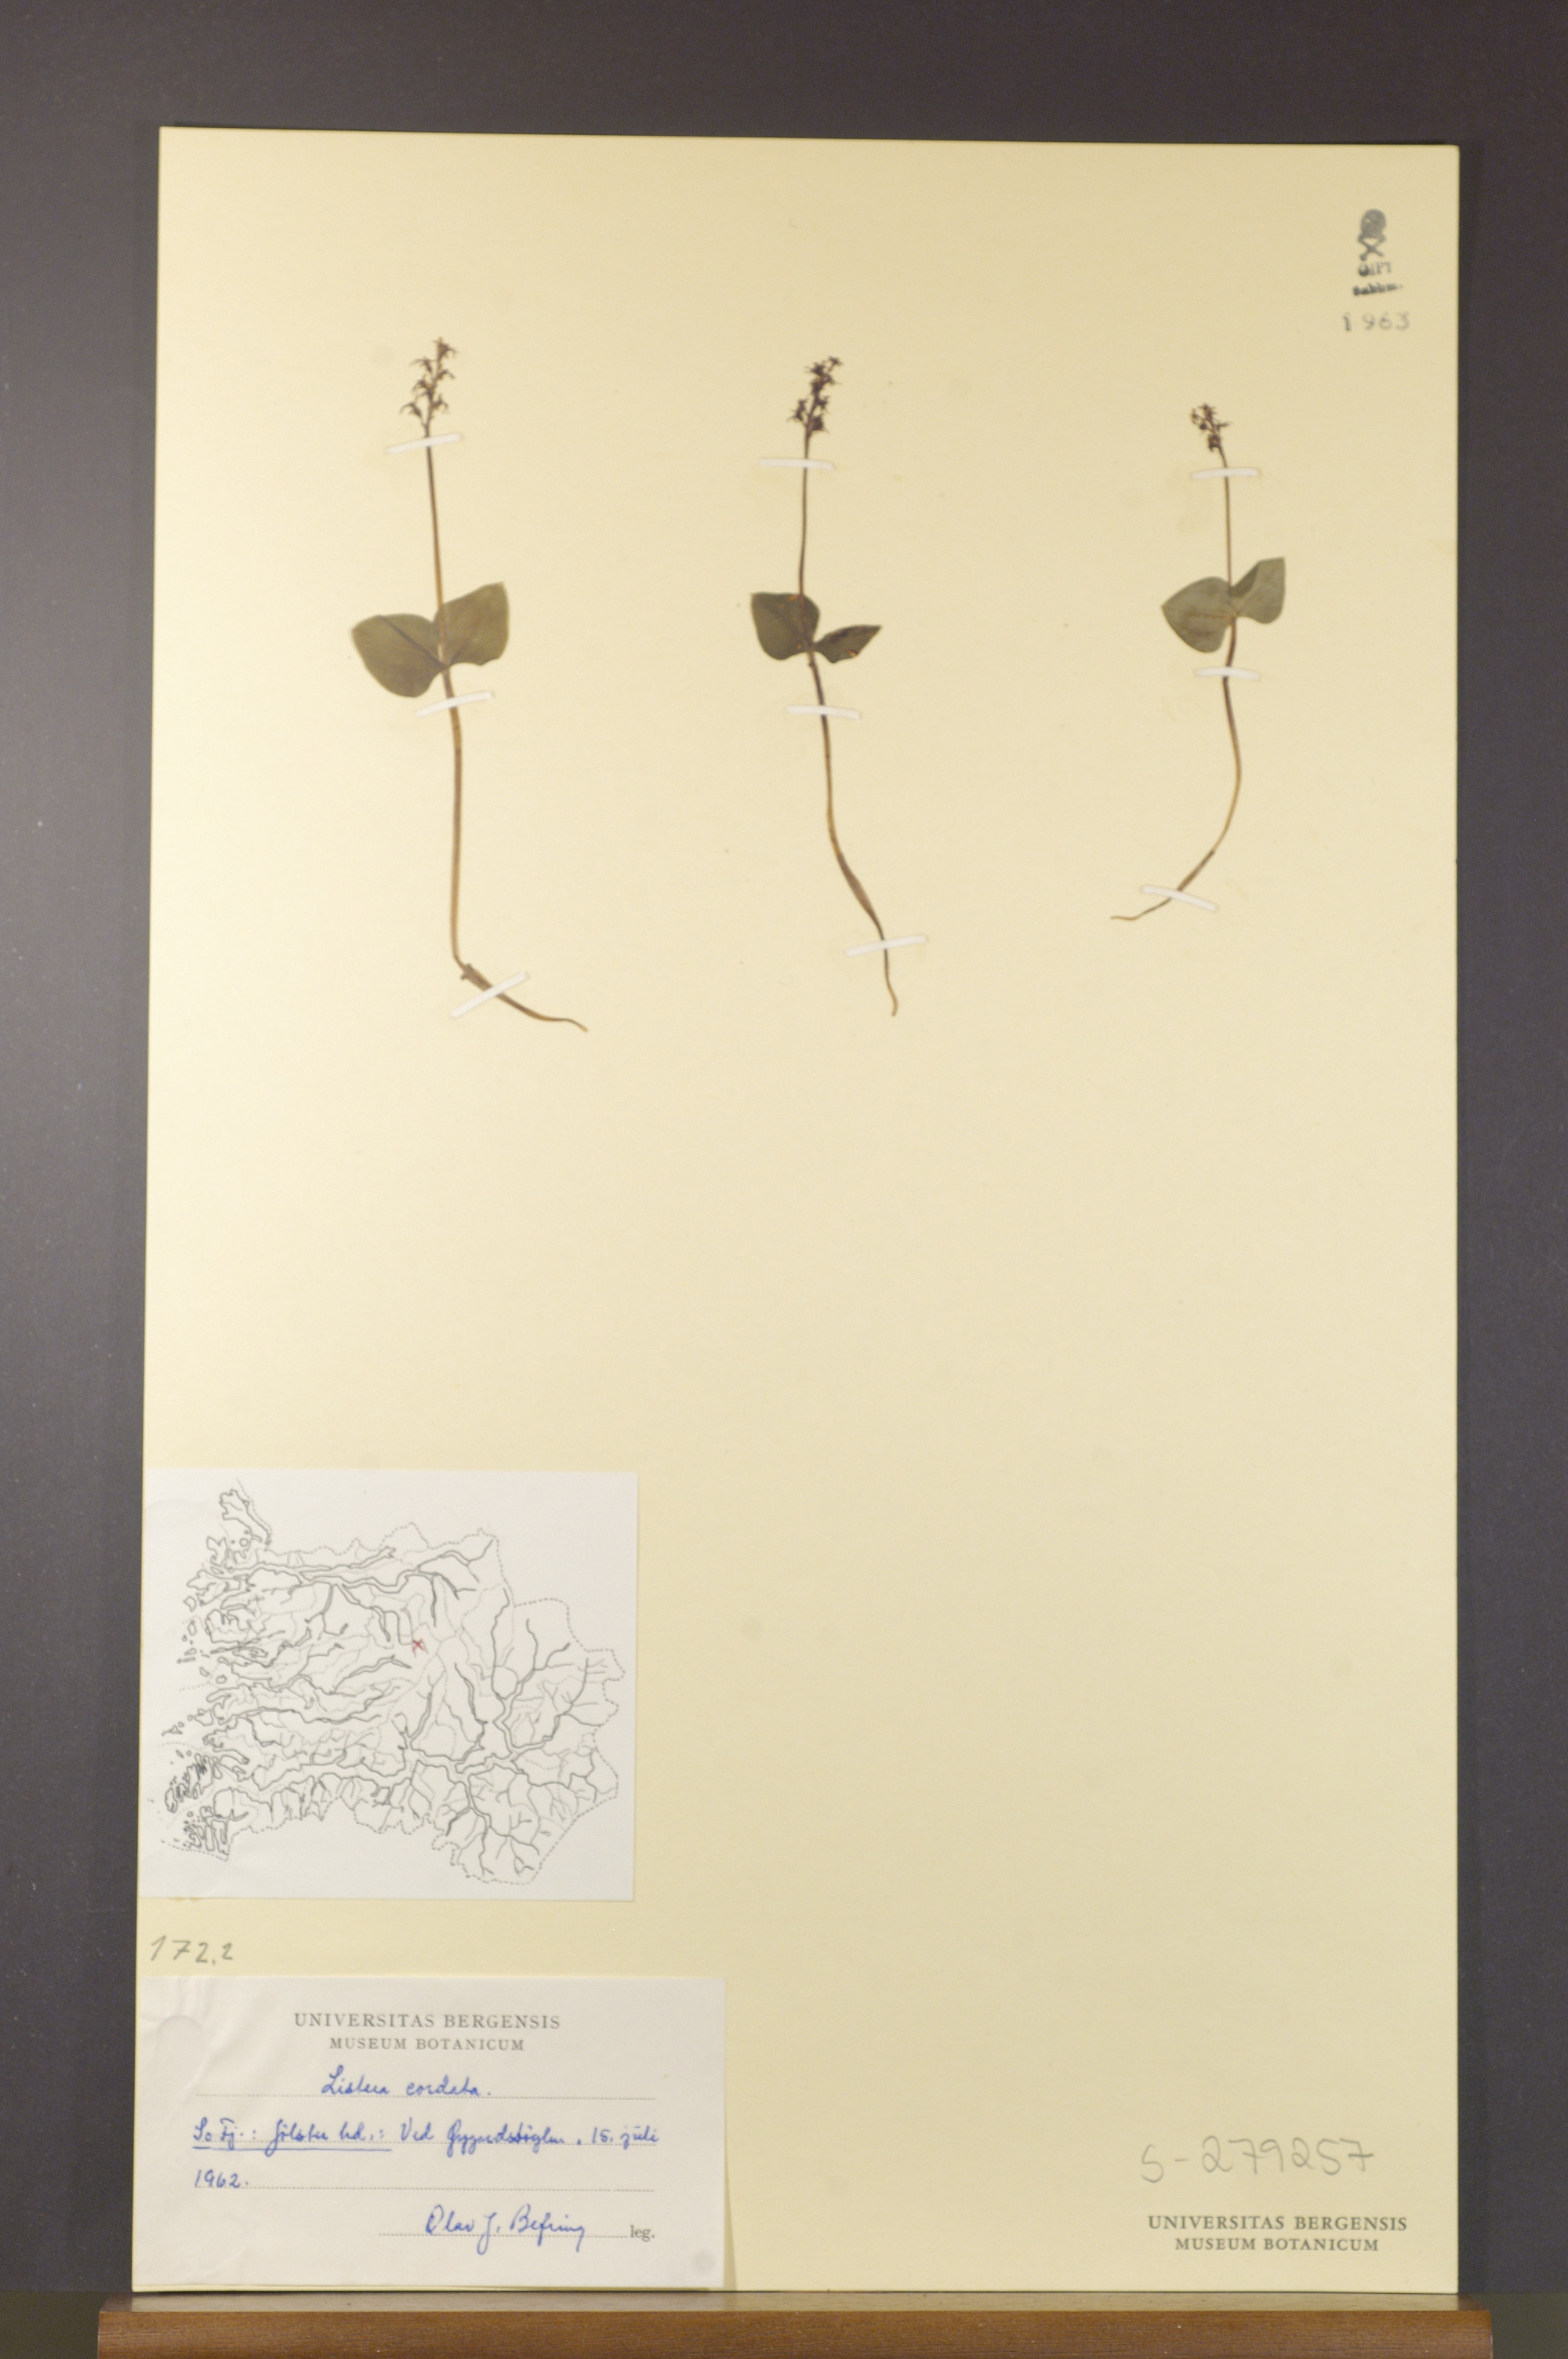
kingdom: Plantae
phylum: Tracheophyta
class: Liliopsida
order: Asparagales
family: Orchidaceae
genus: Neottia
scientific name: Neottia cordata
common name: Lesser twayblade
